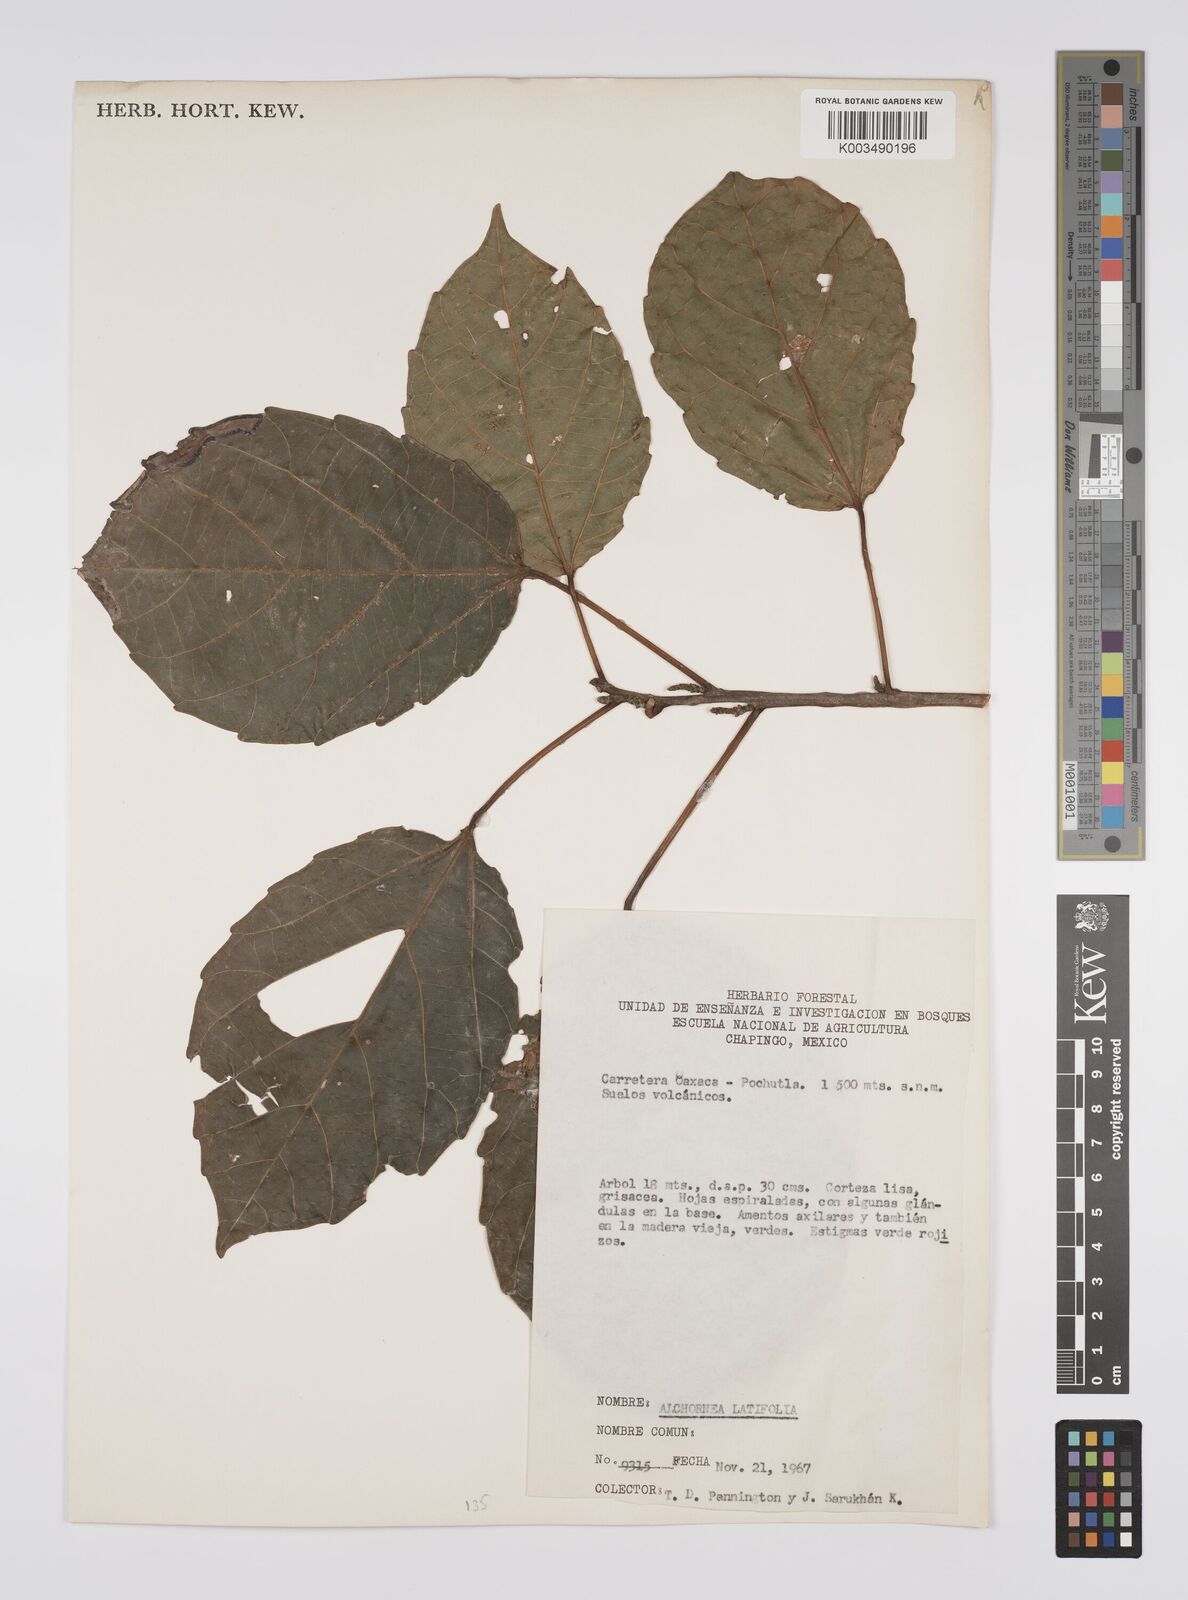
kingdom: Plantae
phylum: Tracheophyta
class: Magnoliopsida
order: Malpighiales
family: Euphorbiaceae
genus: Alchornea
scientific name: Alchornea latifolia
